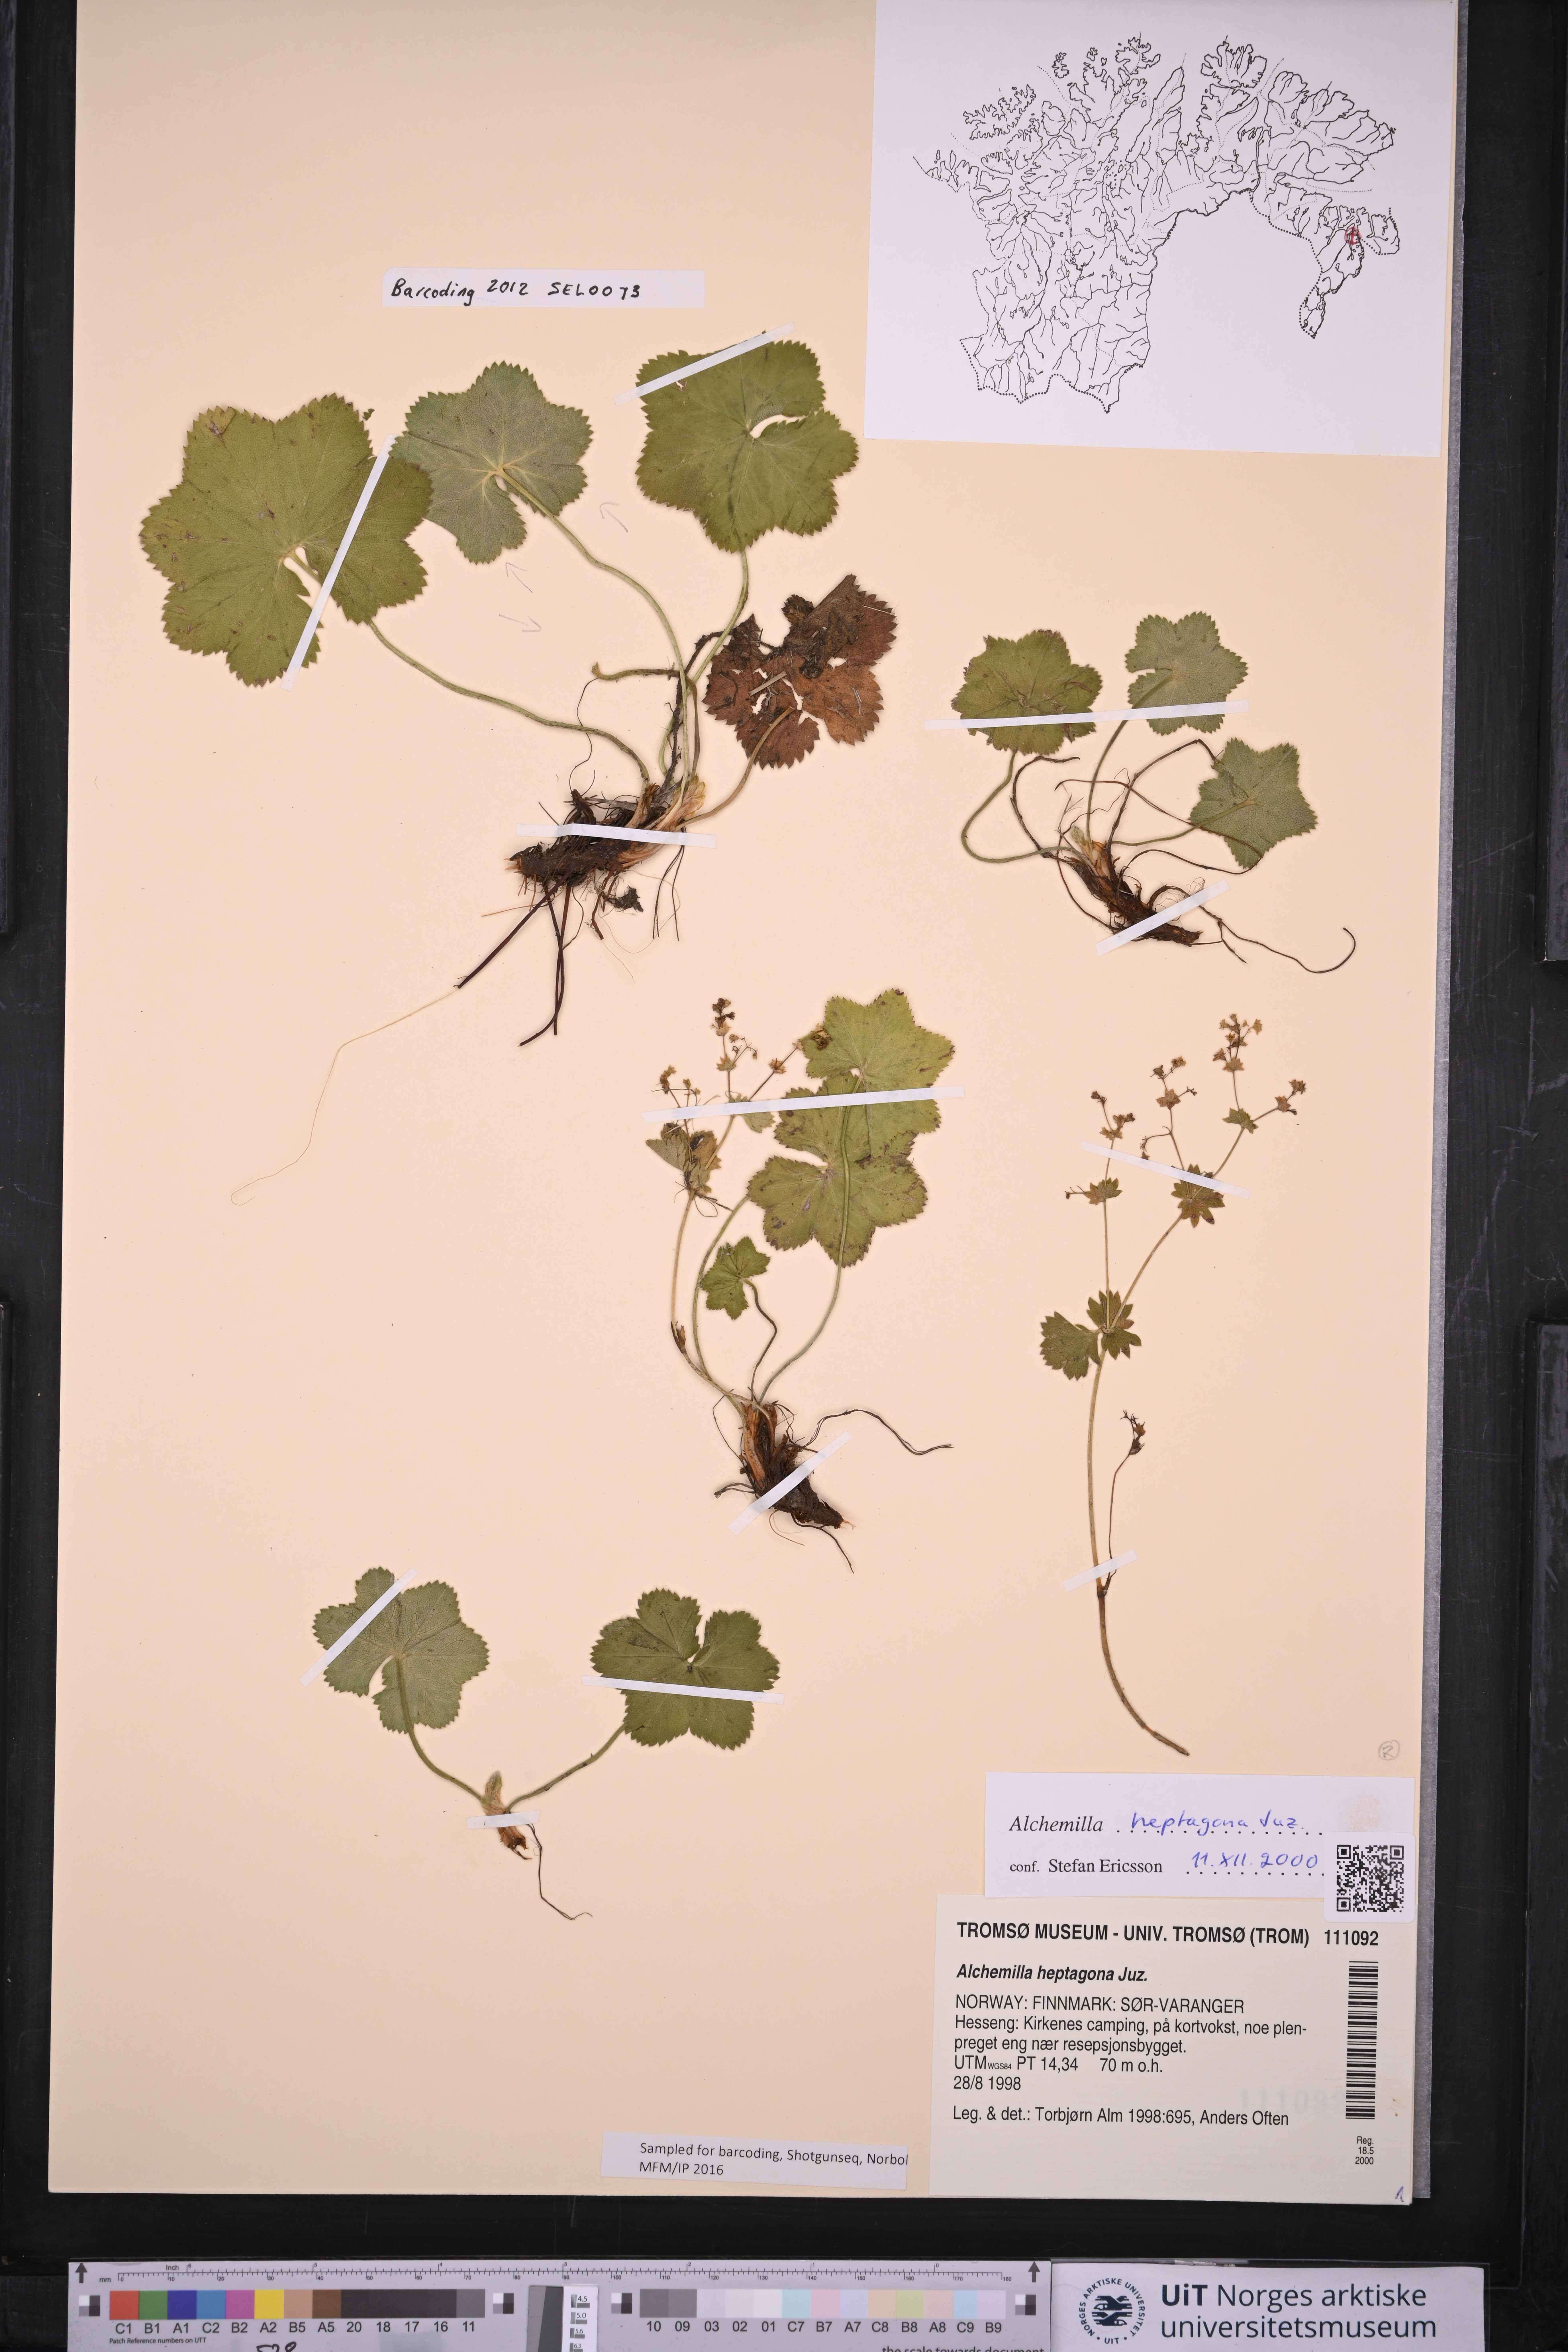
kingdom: Plantae
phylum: Tracheophyta
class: Magnoliopsida
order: Rosales
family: Rosaceae
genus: Alchemilla
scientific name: Alchemilla heptagona
